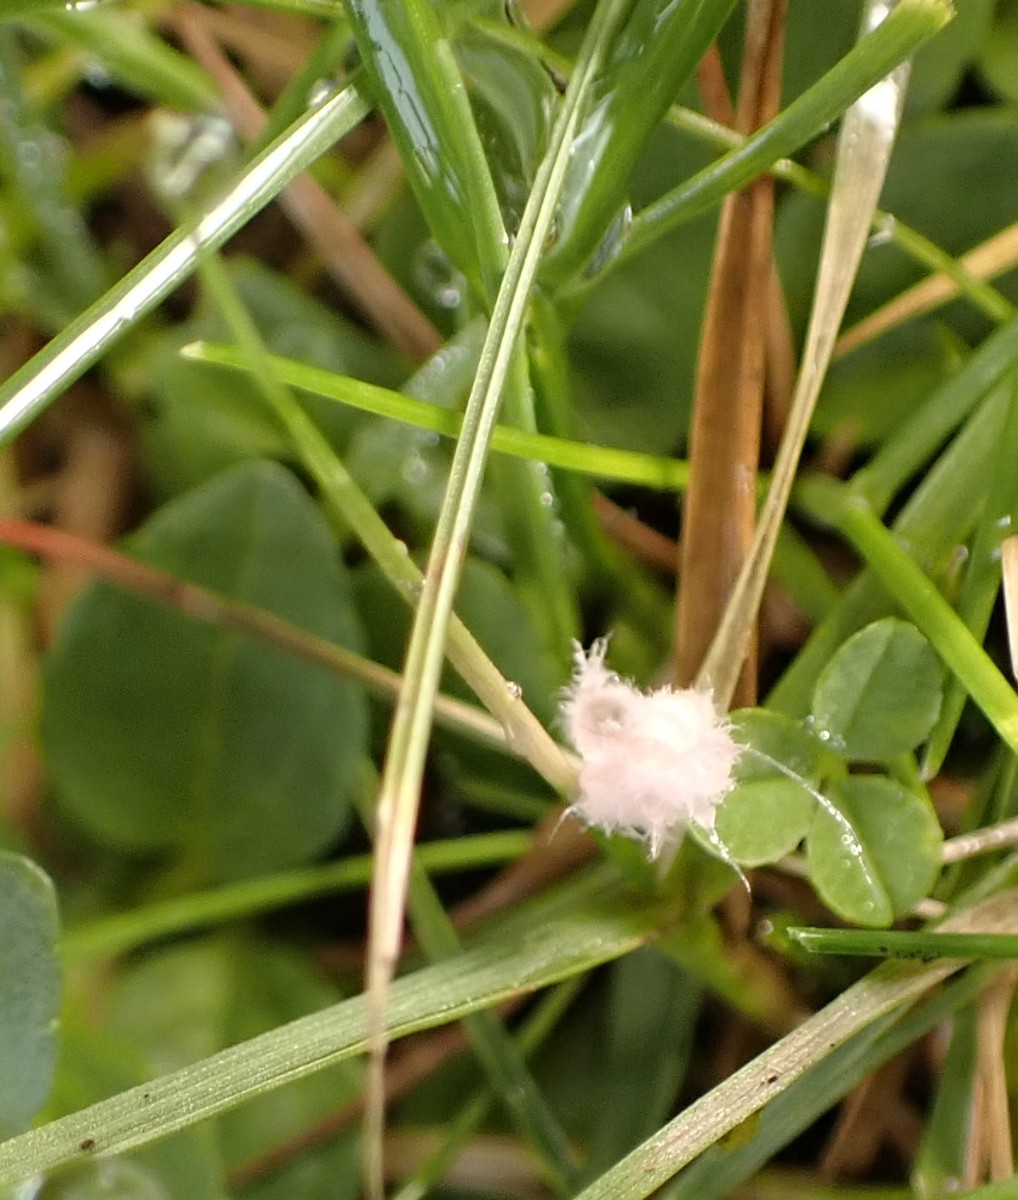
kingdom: Fungi
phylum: Basidiomycota
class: Agaricomycetes
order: Corticiales
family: Corticiaceae
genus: Laetisaria
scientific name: Laetisaria
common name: rødtråd
